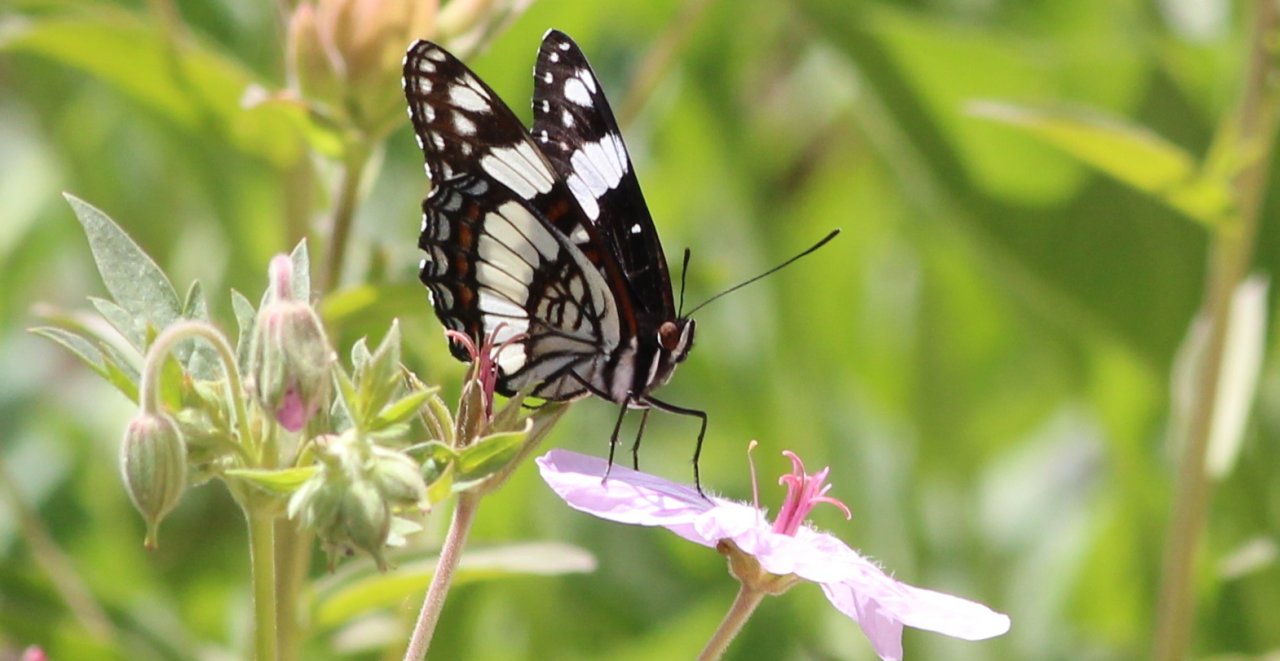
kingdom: Animalia
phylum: Arthropoda
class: Insecta
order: Lepidoptera
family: Nymphalidae
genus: Limenitis
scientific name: Limenitis weidemeyerii
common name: Weidemeyer's Admiral
